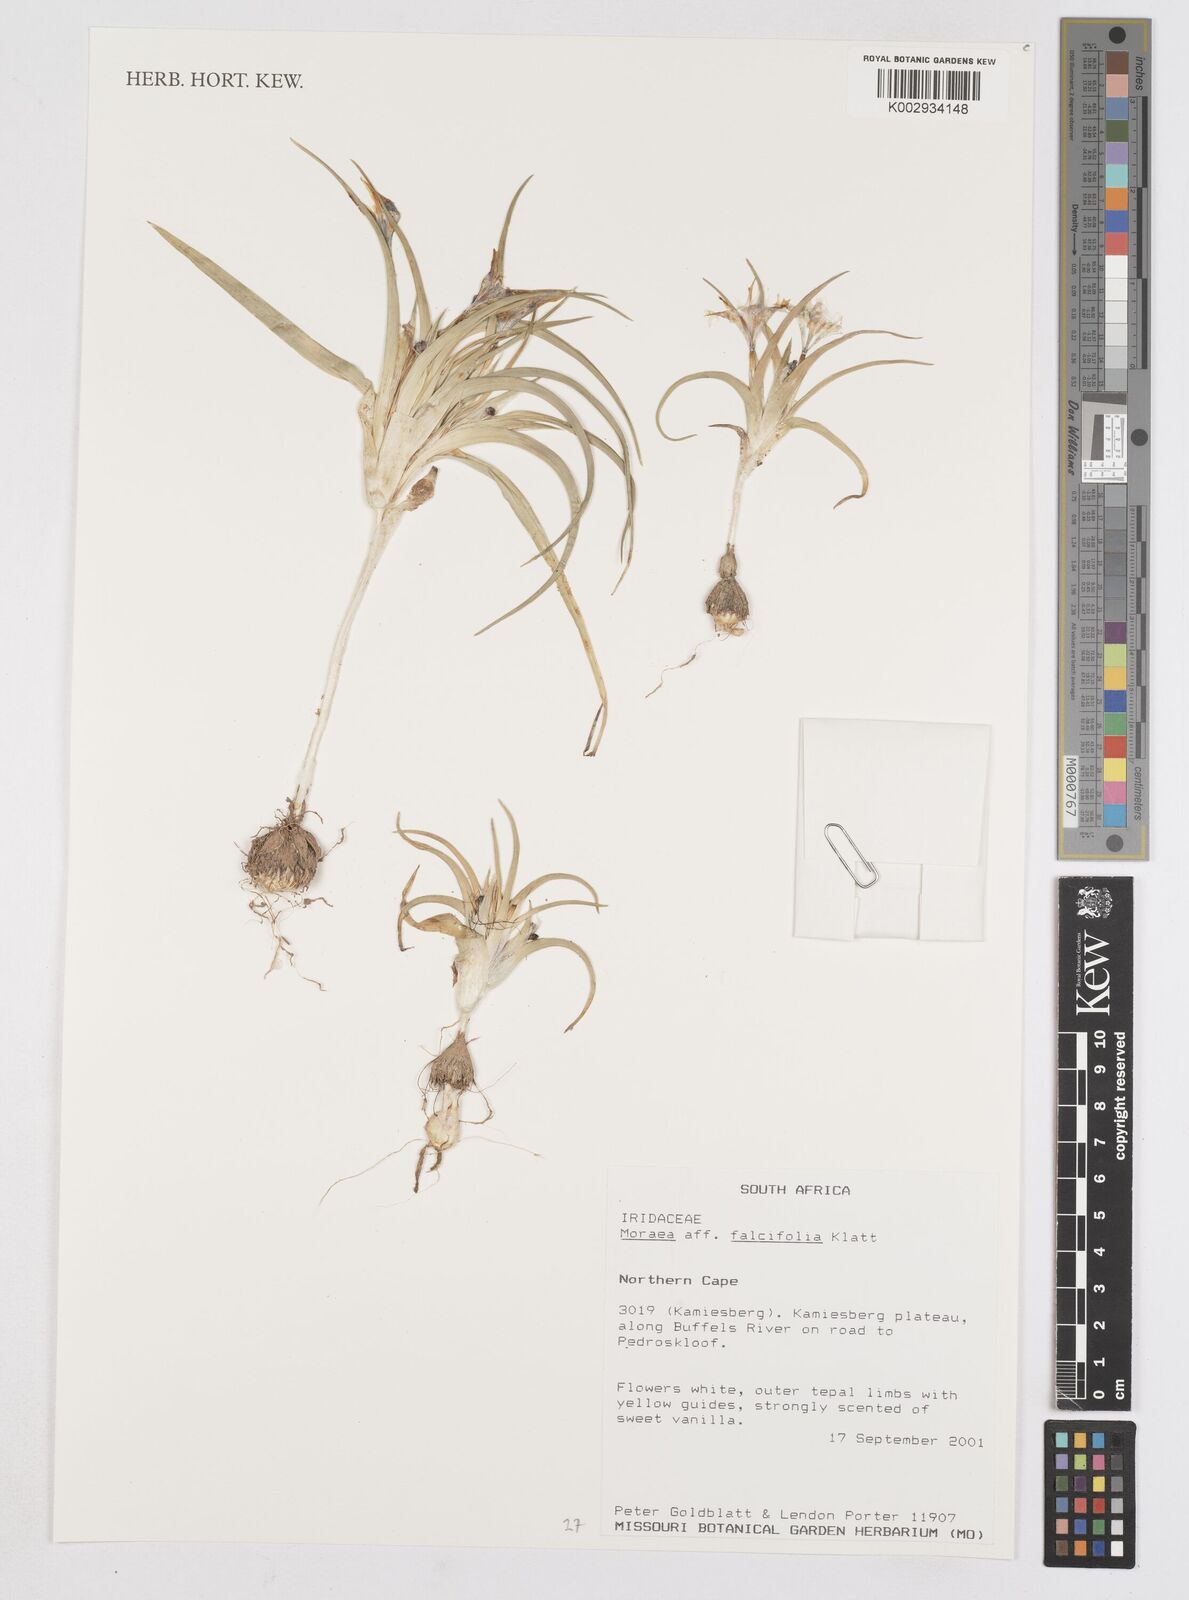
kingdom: Plantae
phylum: Tracheophyta
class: Liliopsida
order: Asparagales
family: Iridaceae
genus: Moraea
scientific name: Moraea falcifolia
